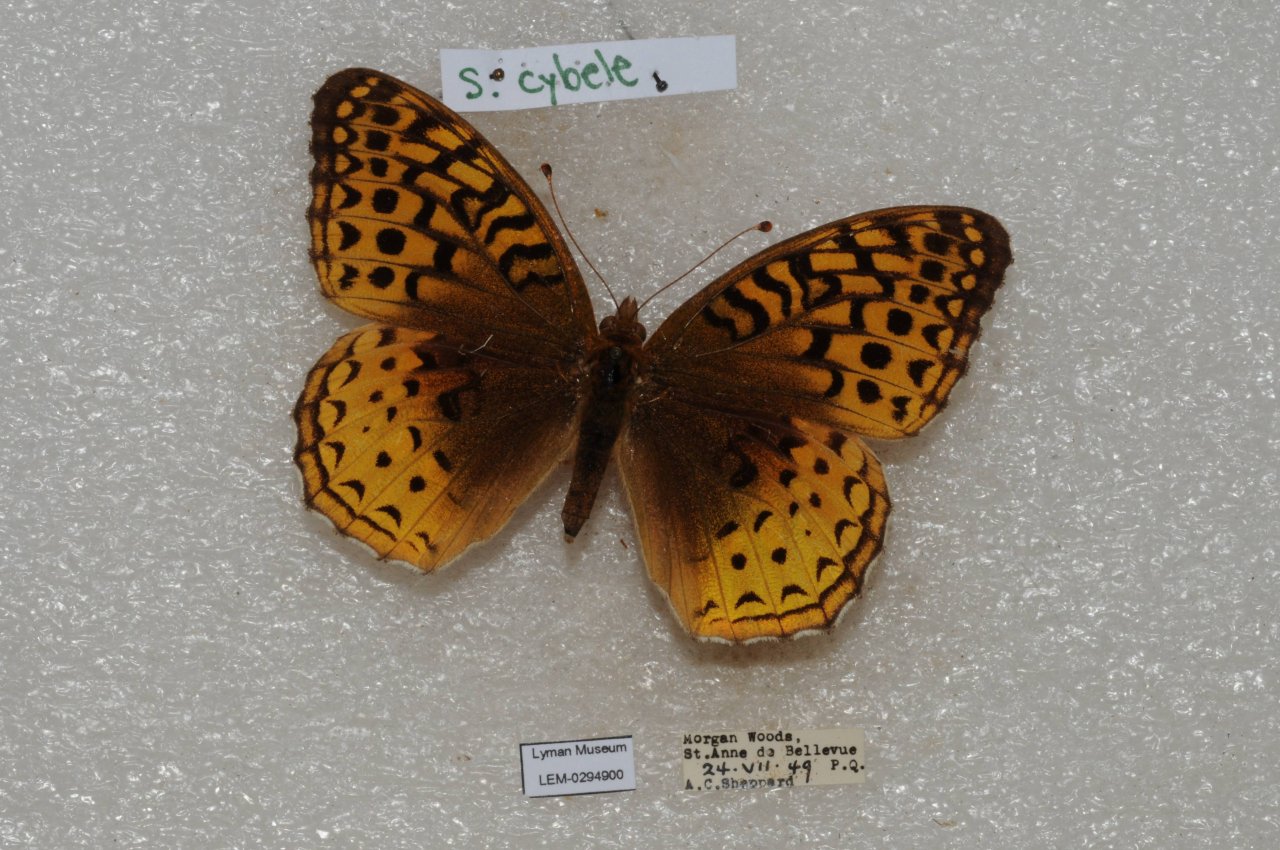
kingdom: Animalia
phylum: Arthropoda
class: Insecta
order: Lepidoptera
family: Nymphalidae
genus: Speyeria
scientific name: Speyeria cybele
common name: Great Spangled Fritillary
